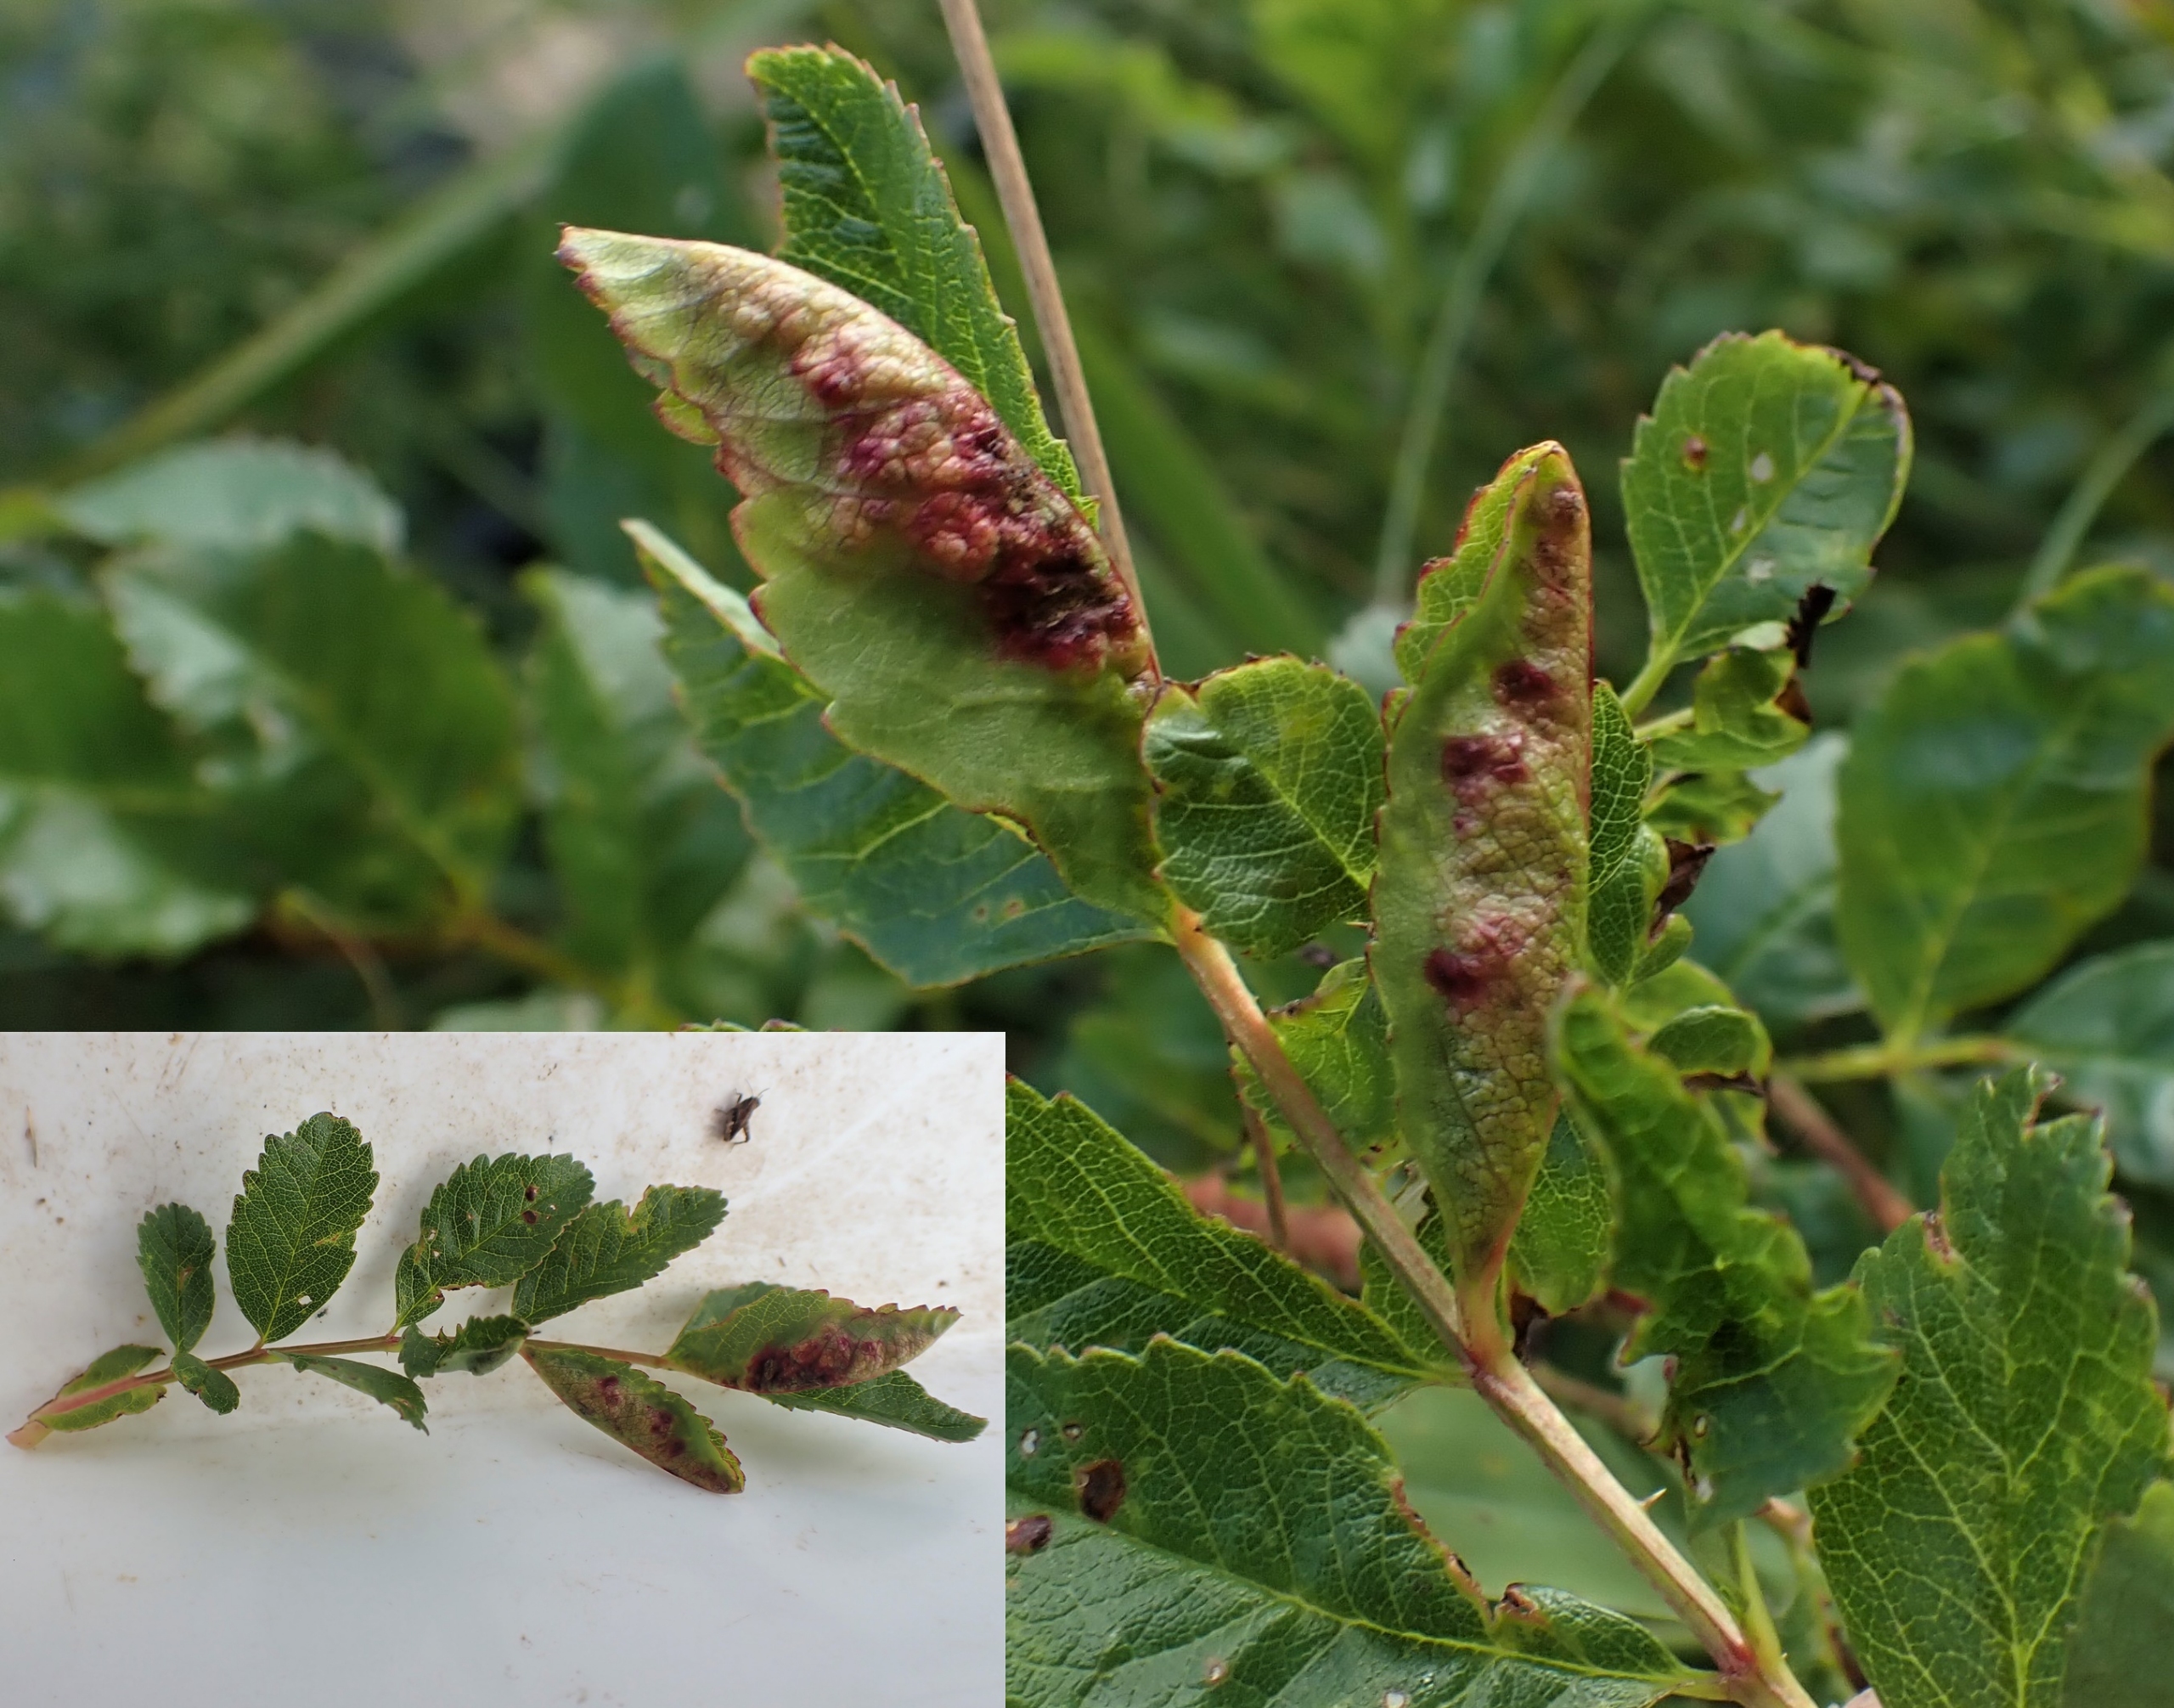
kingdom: Animalia
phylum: Arthropoda
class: Insecta
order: Diptera
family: Cecidomyiidae
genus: Wachtliella
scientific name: Wachtliella rosae
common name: Rosenbladgalmyg
